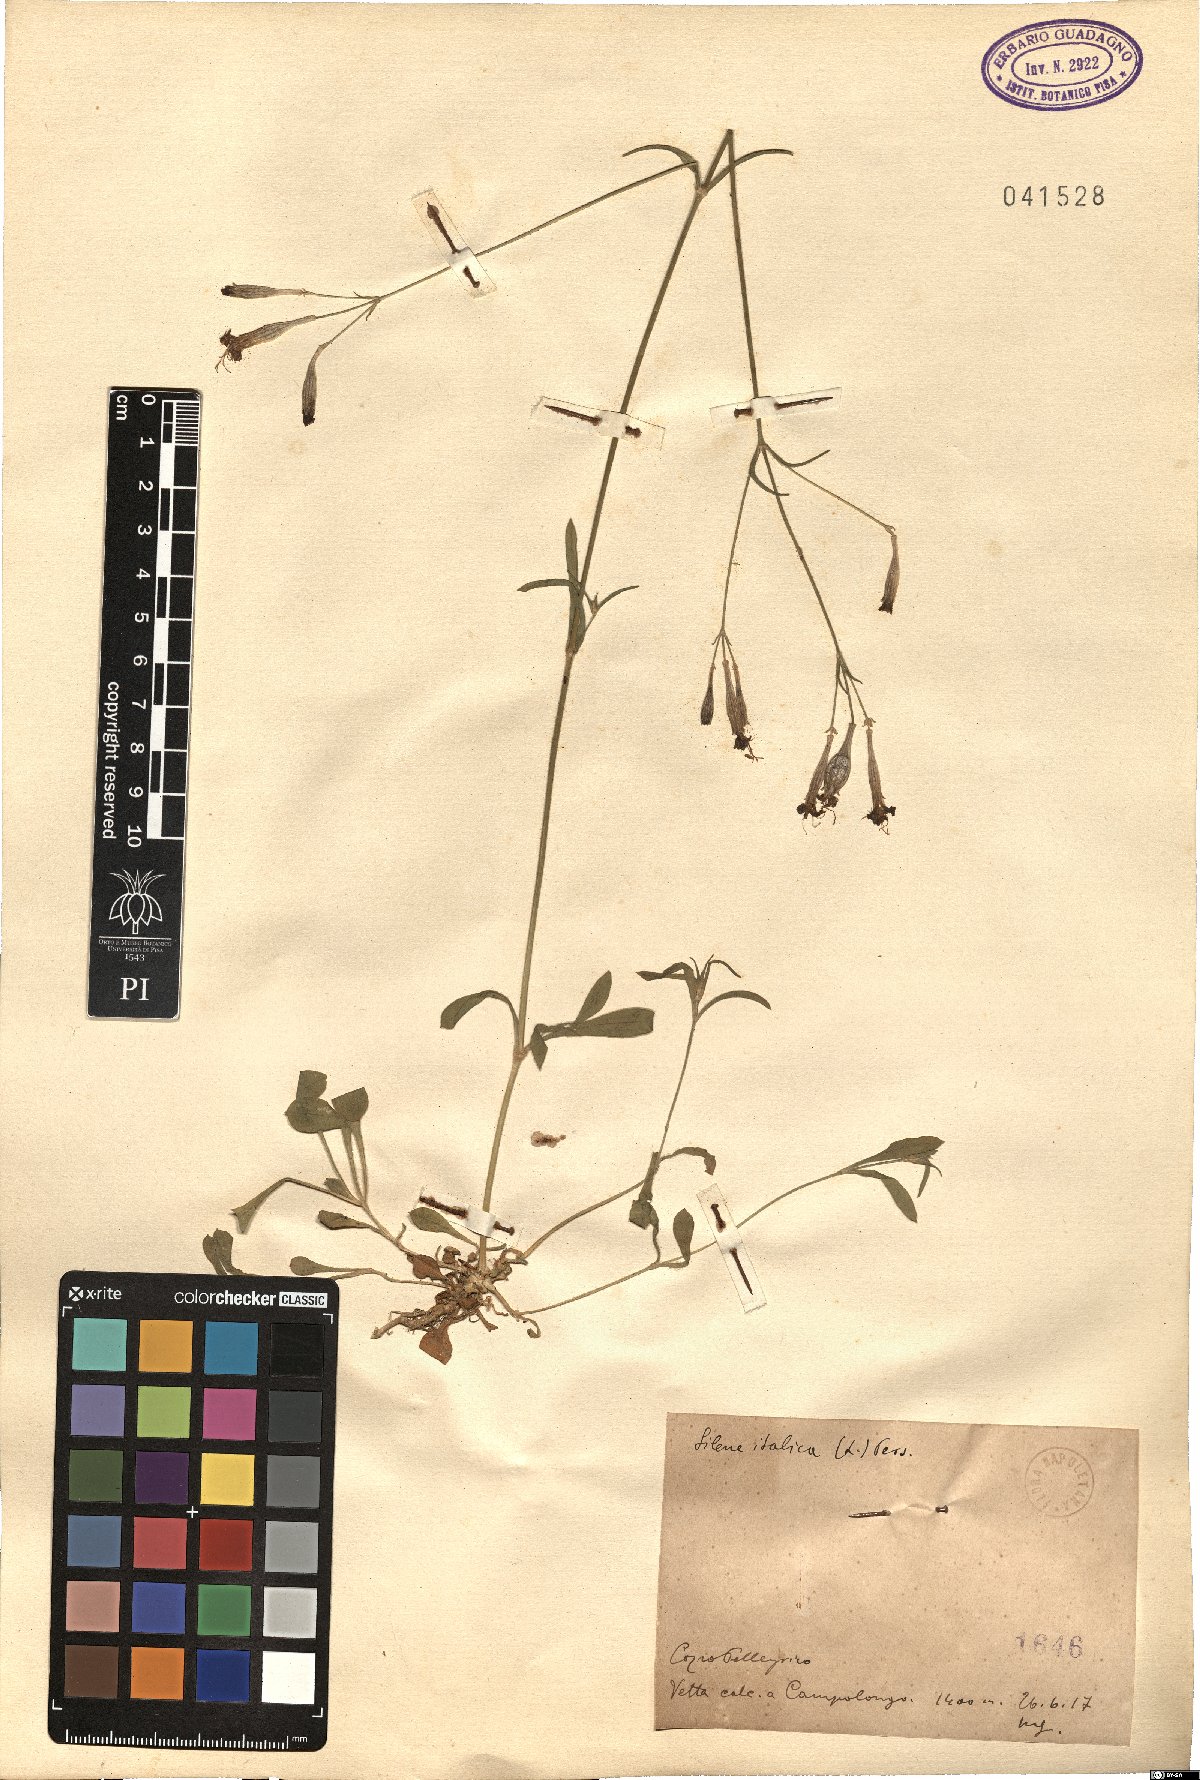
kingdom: Plantae
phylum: Tracheophyta
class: Magnoliopsida
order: Caryophyllales
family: Caryophyllaceae
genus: Silene
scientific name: Silene italica
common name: Italian catchfly
